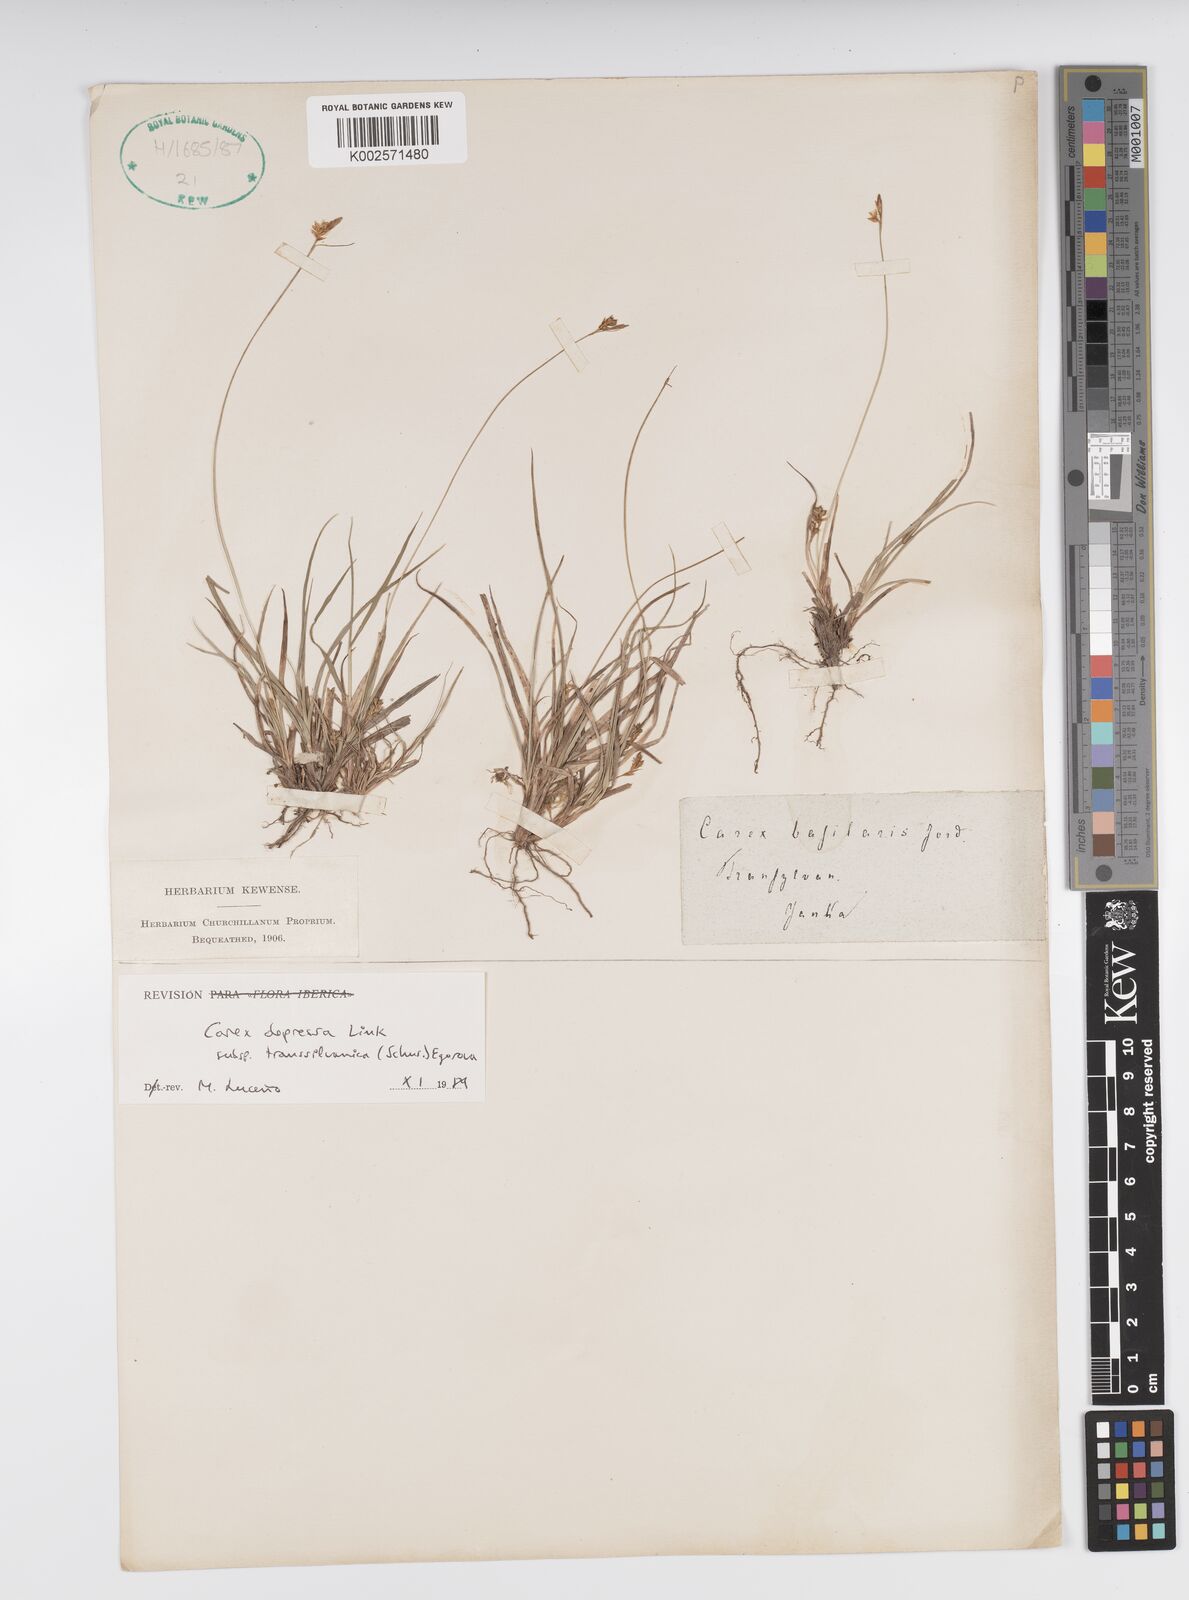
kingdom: Plantae
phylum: Tracheophyta
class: Liliopsida
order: Poales
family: Cyperaceae
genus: Carex
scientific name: Carex depressa
